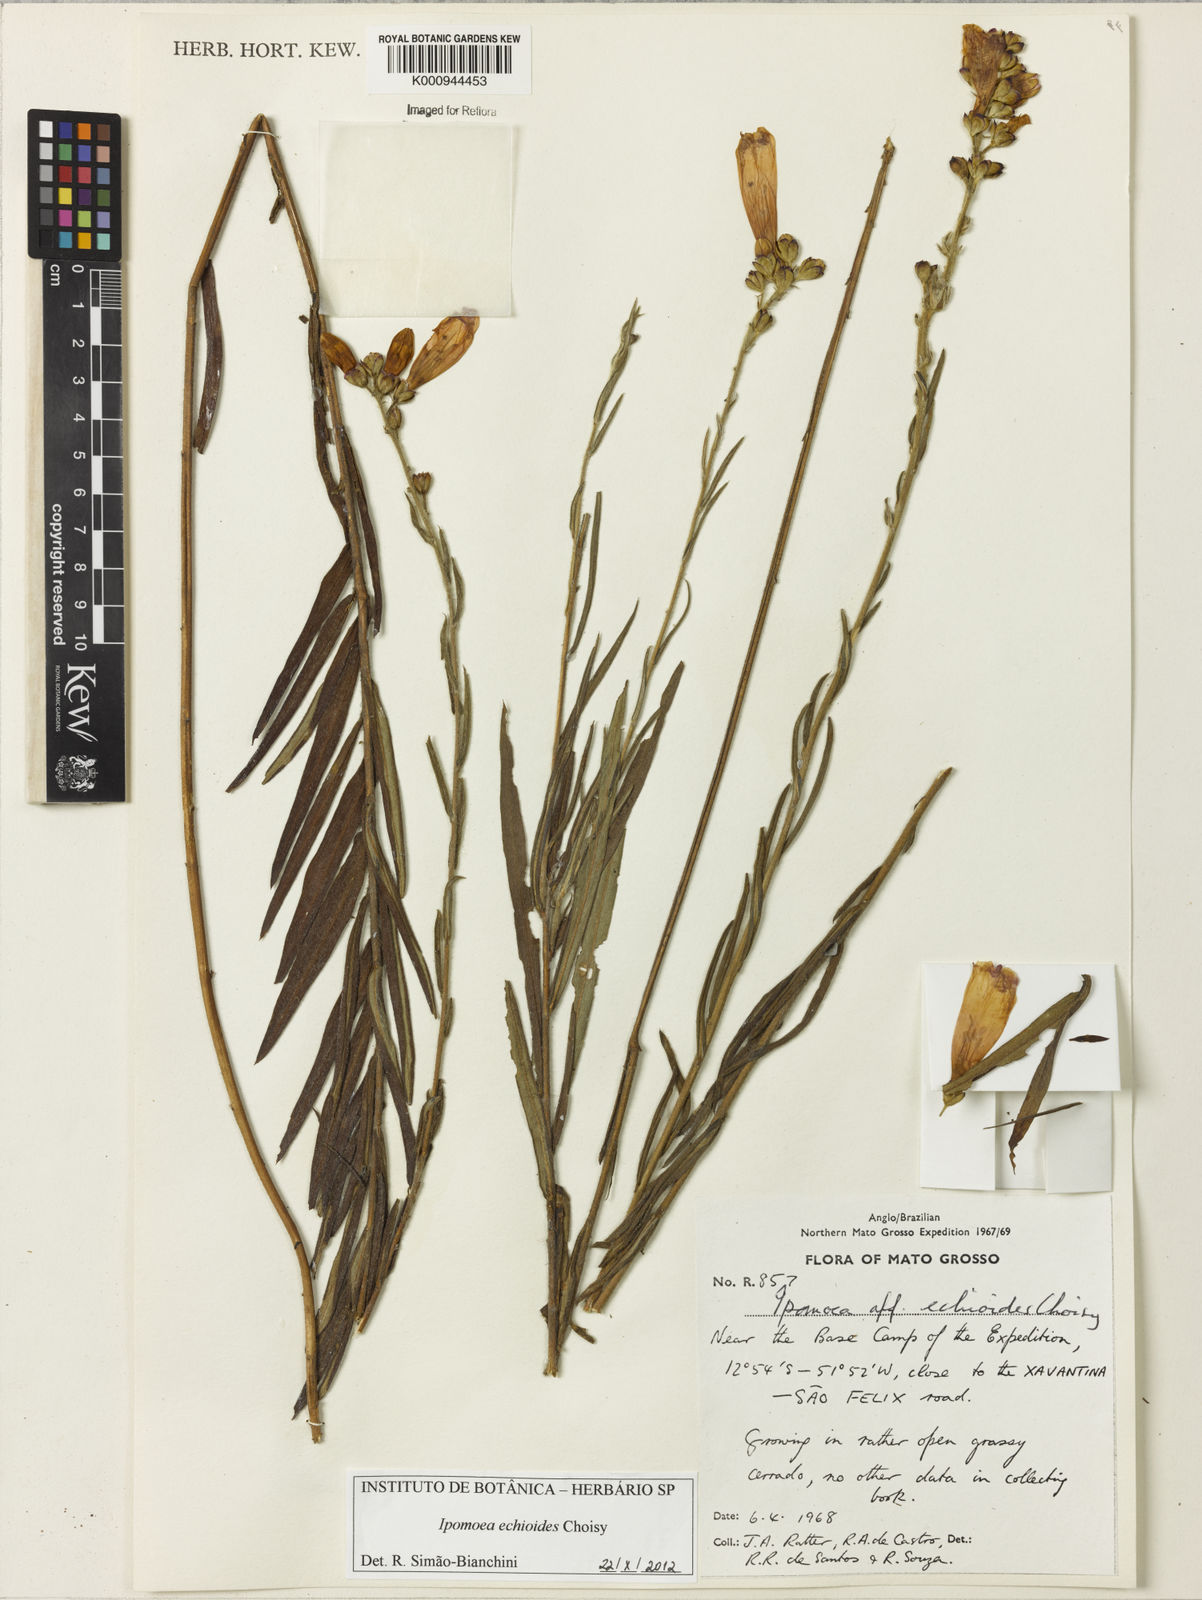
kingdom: Plantae
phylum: Tracheophyta
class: Magnoliopsida
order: Solanales
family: Convolvulaceae
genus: Ipomoea
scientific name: Ipomoea paulistana
